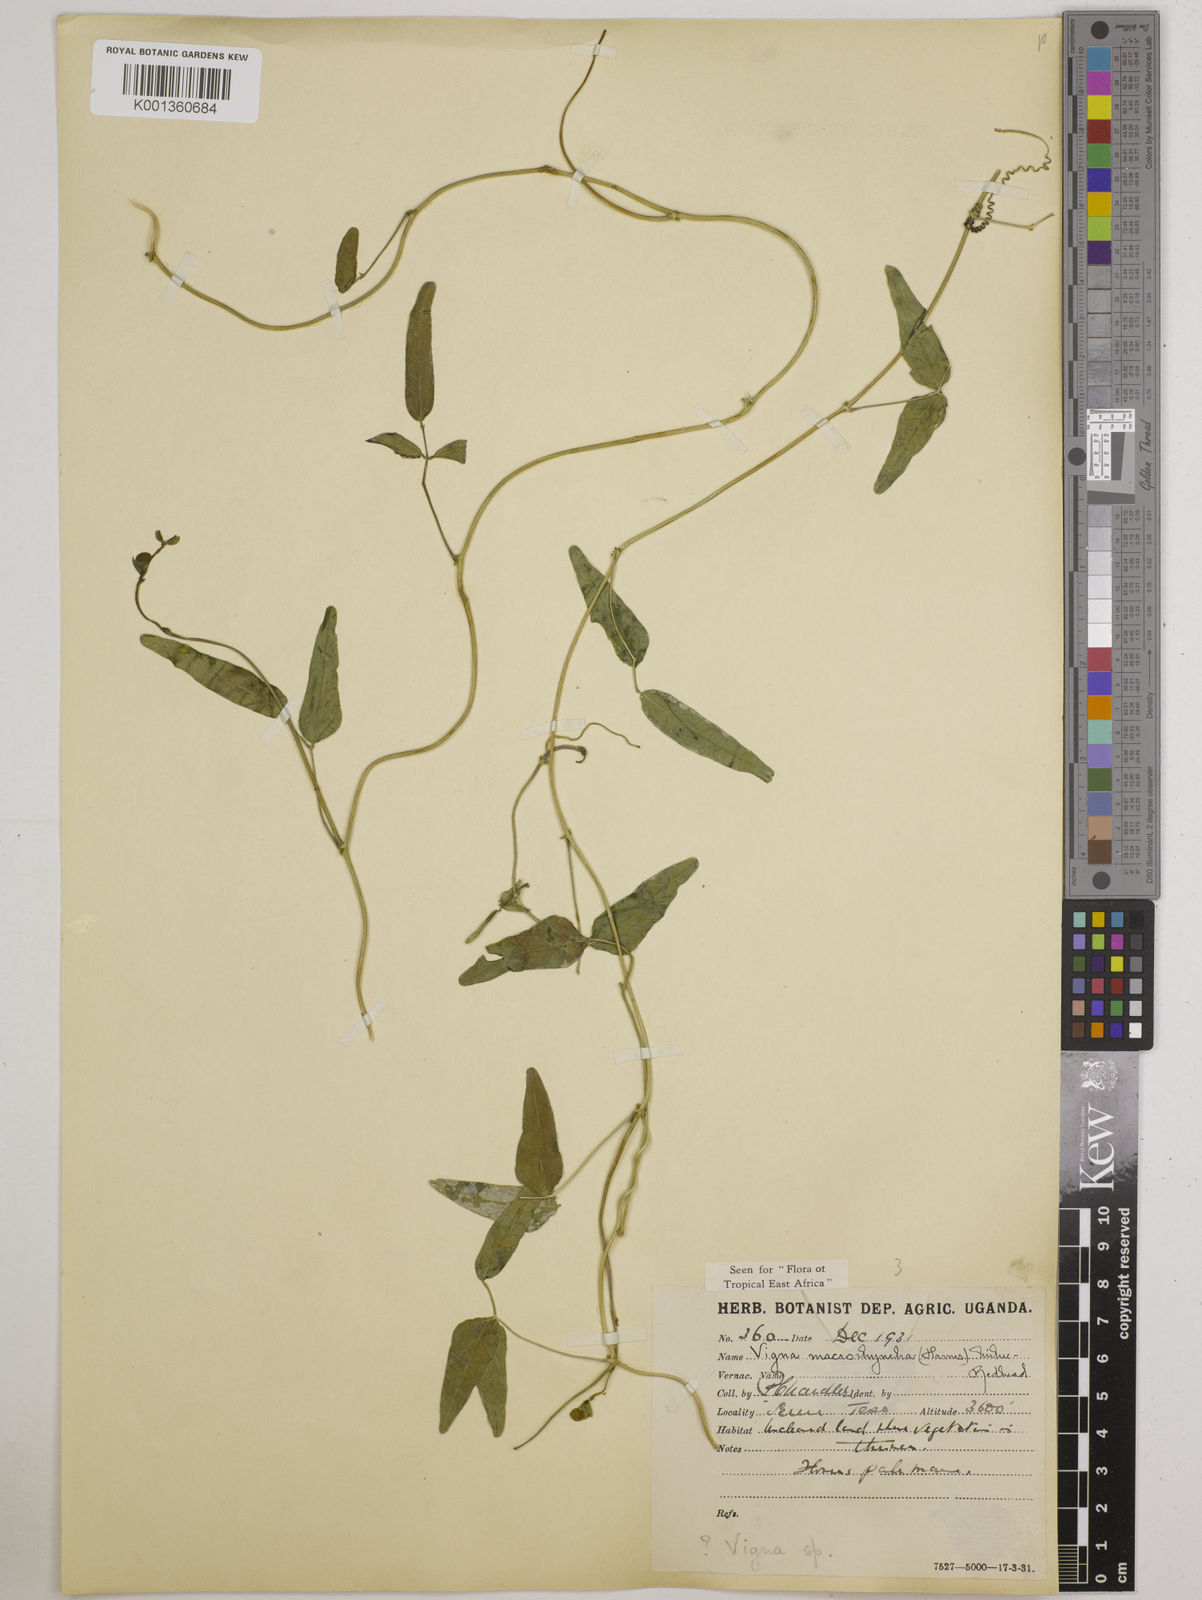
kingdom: Plantae
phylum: Tracheophyta
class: Magnoliopsida
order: Fabales
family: Fabaceae
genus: Wajira
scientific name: Wajira grahamiana
